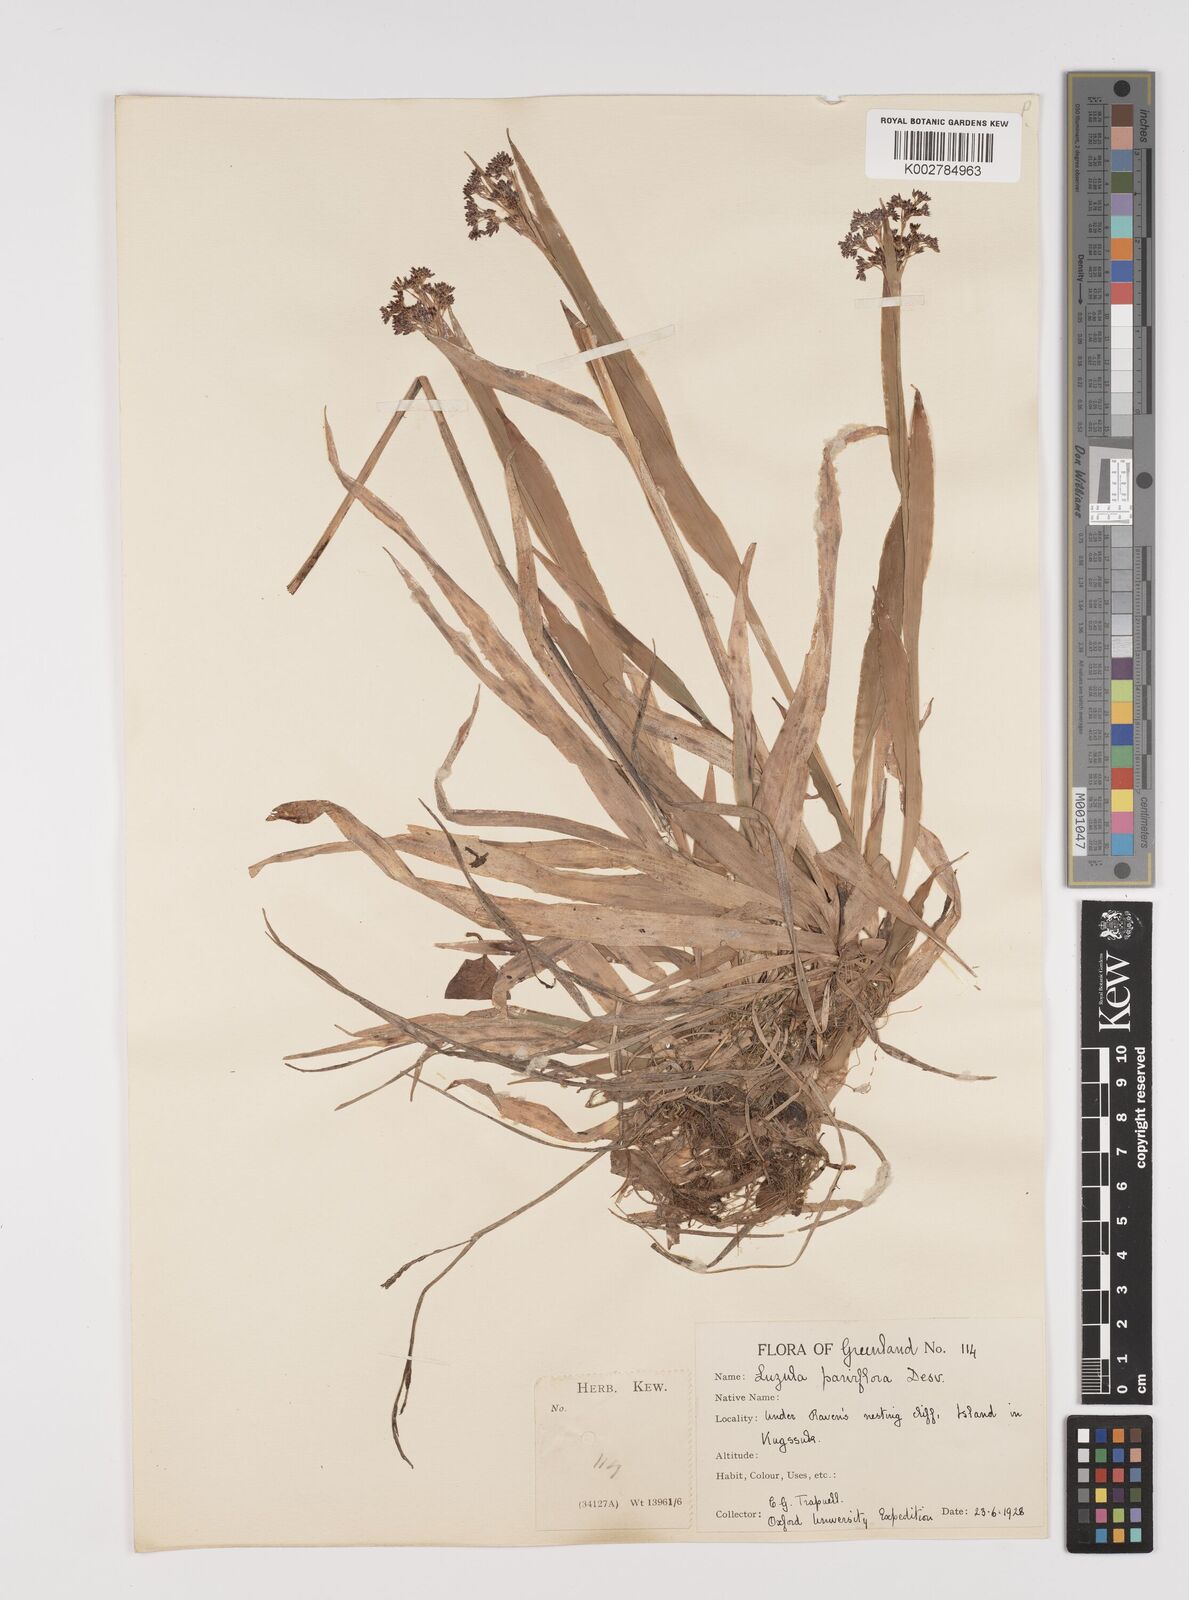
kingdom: Plantae
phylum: Tracheophyta
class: Liliopsida
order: Poales
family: Juncaceae
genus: Luzula
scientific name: Luzula parviflora
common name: Millet woodrush
